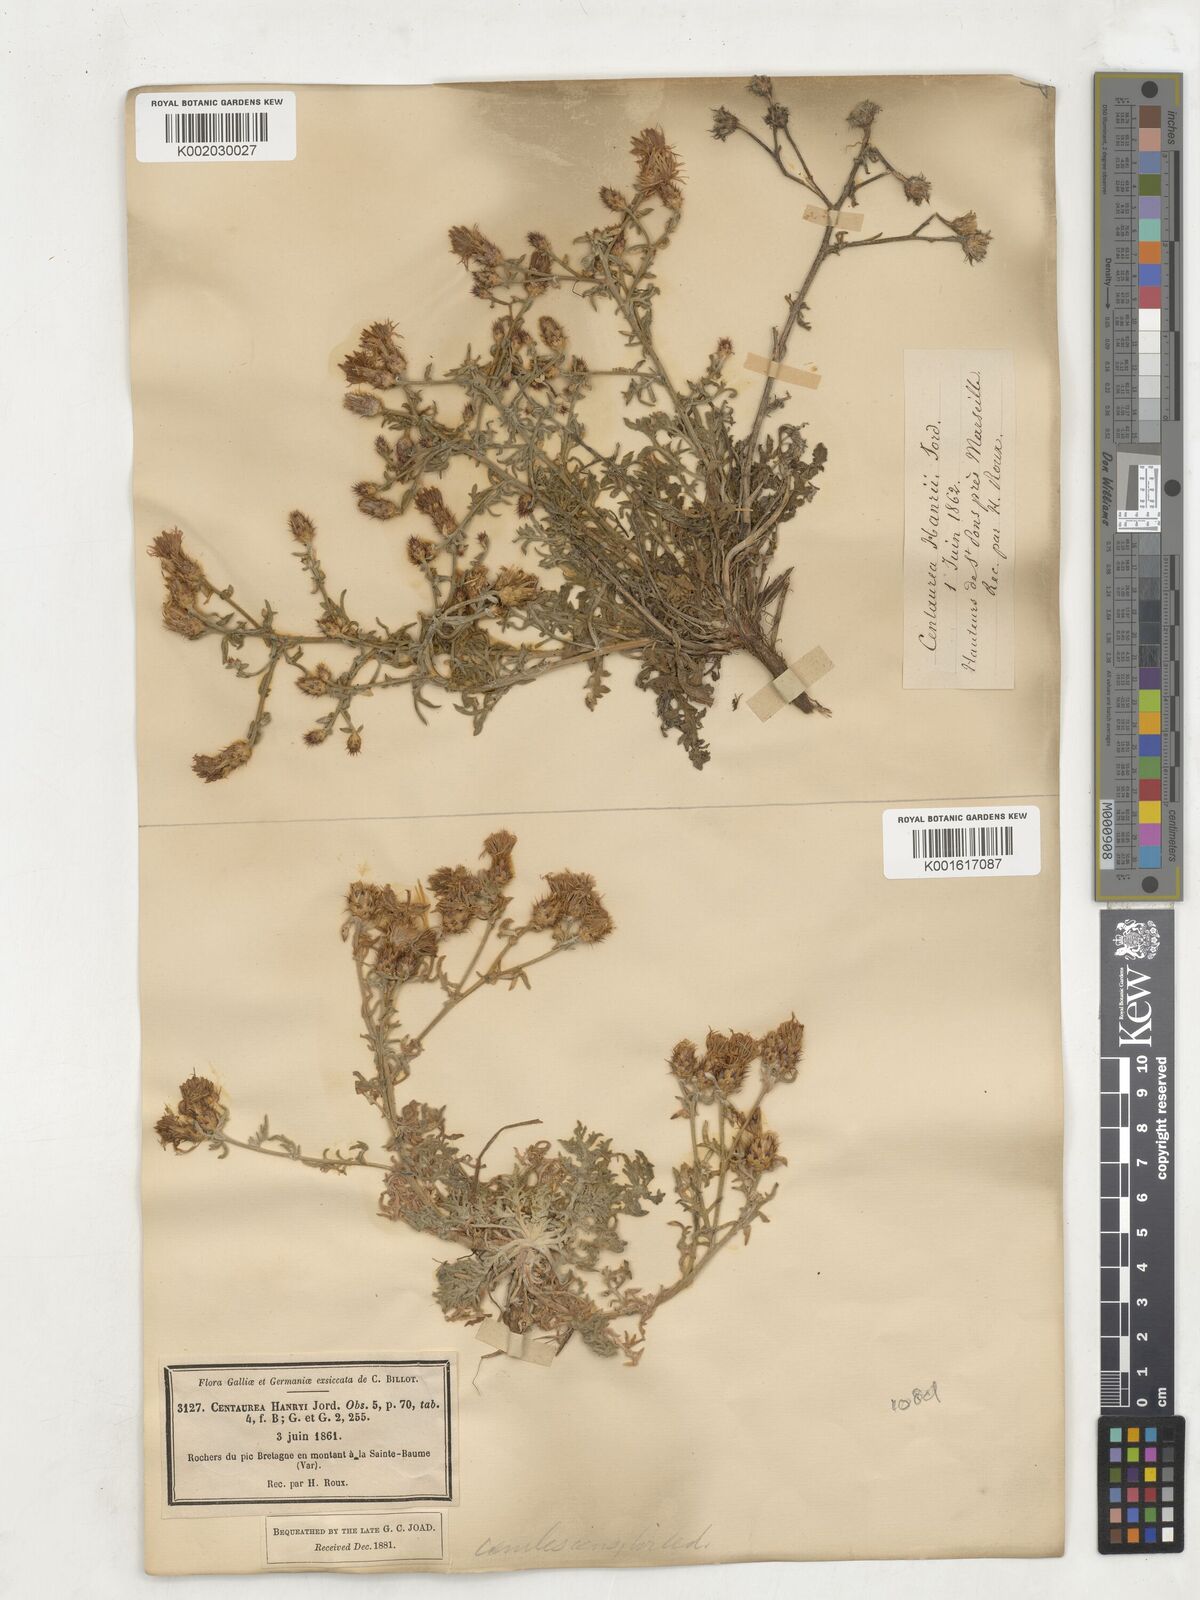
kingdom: Plantae
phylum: Tracheophyta
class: Magnoliopsida
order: Asterales
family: Asteraceae
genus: Centaurea
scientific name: Centaurea hanryi
